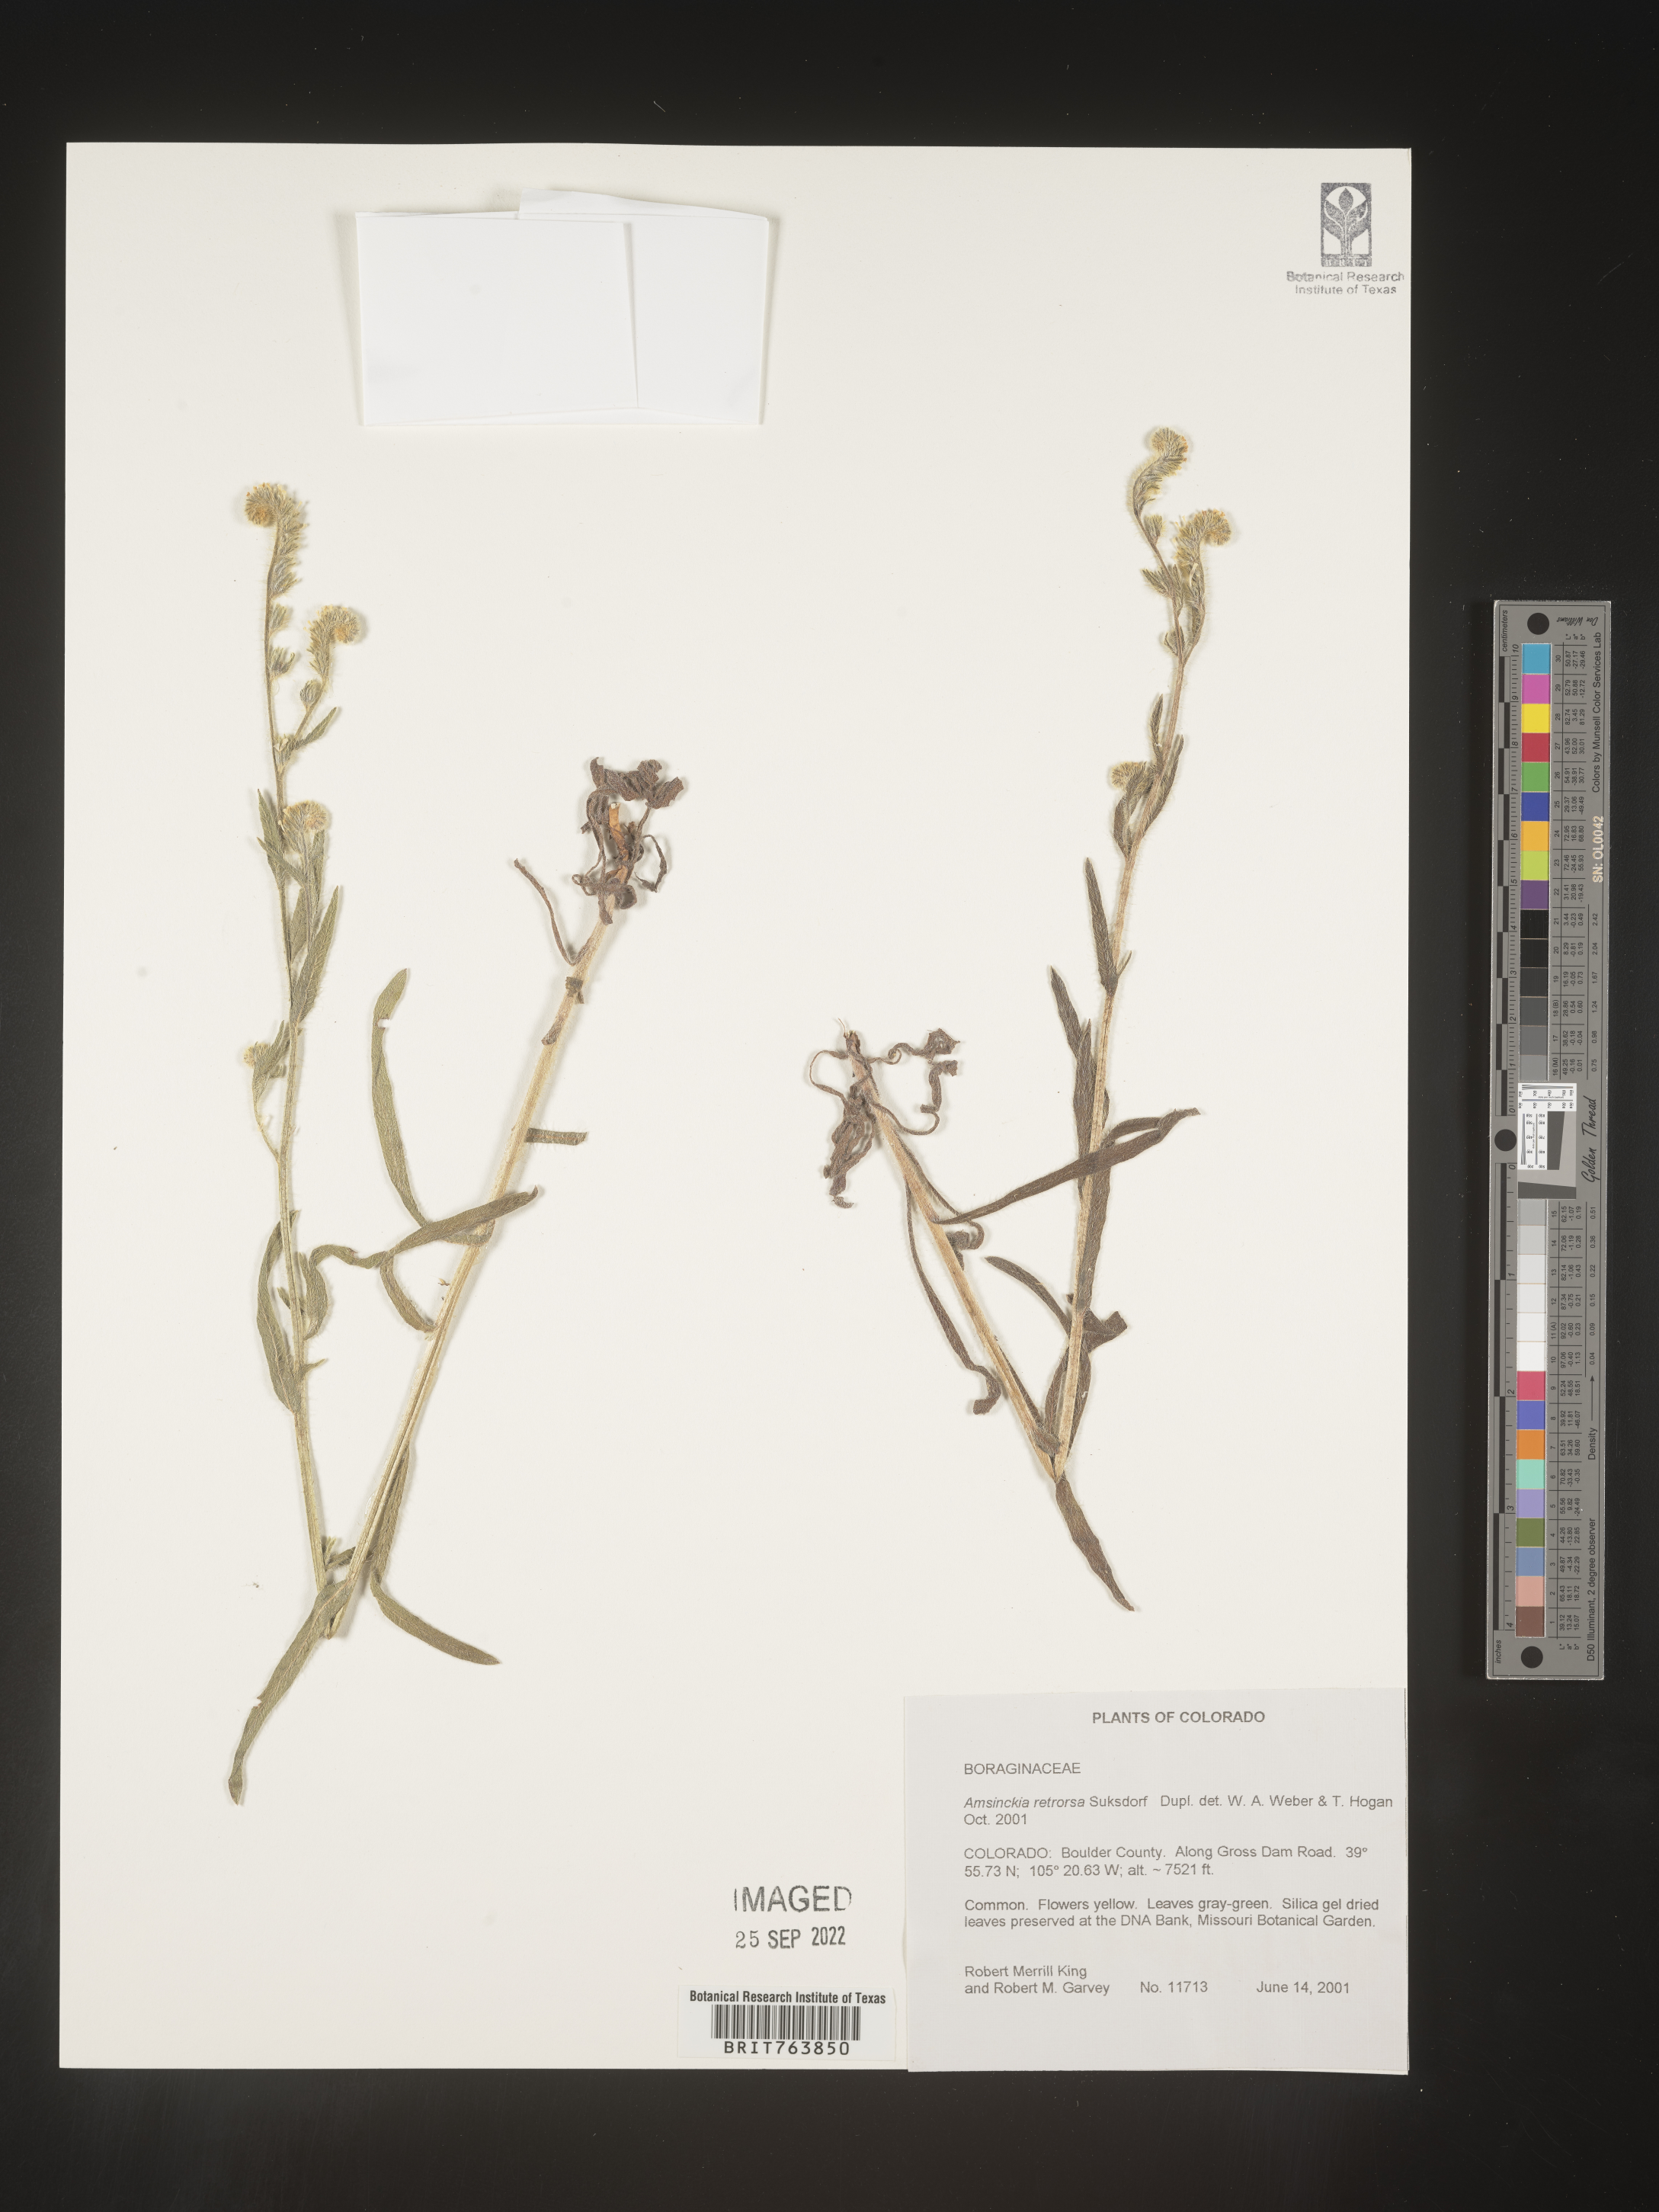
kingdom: Plantae
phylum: Tracheophyta
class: Magnoliopsida
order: Boraginales
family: Boraginaceae
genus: Amsinckia
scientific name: Amsinckia
